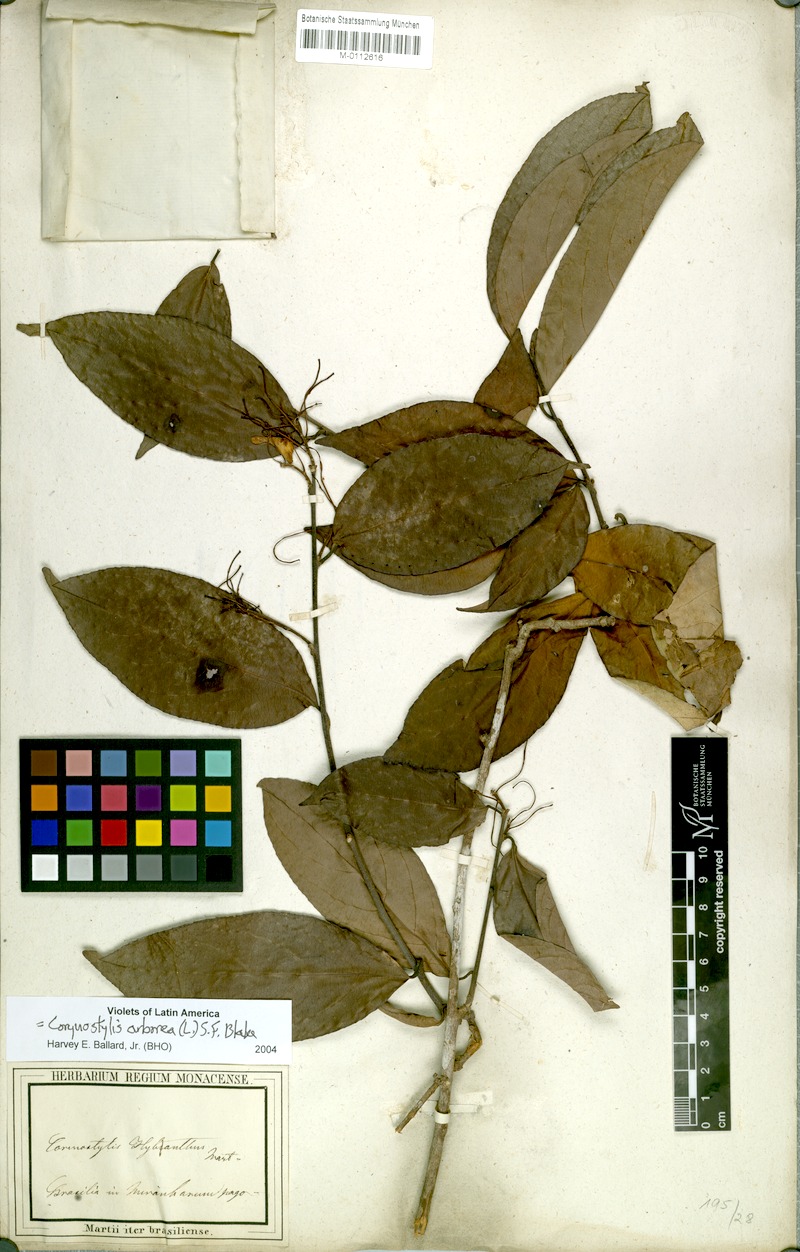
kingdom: Plantae
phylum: Tracheophyta
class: Magnoliopsida
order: Malpighiales
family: Violaceae
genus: Calyptrion
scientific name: Calyptrion arboreum
